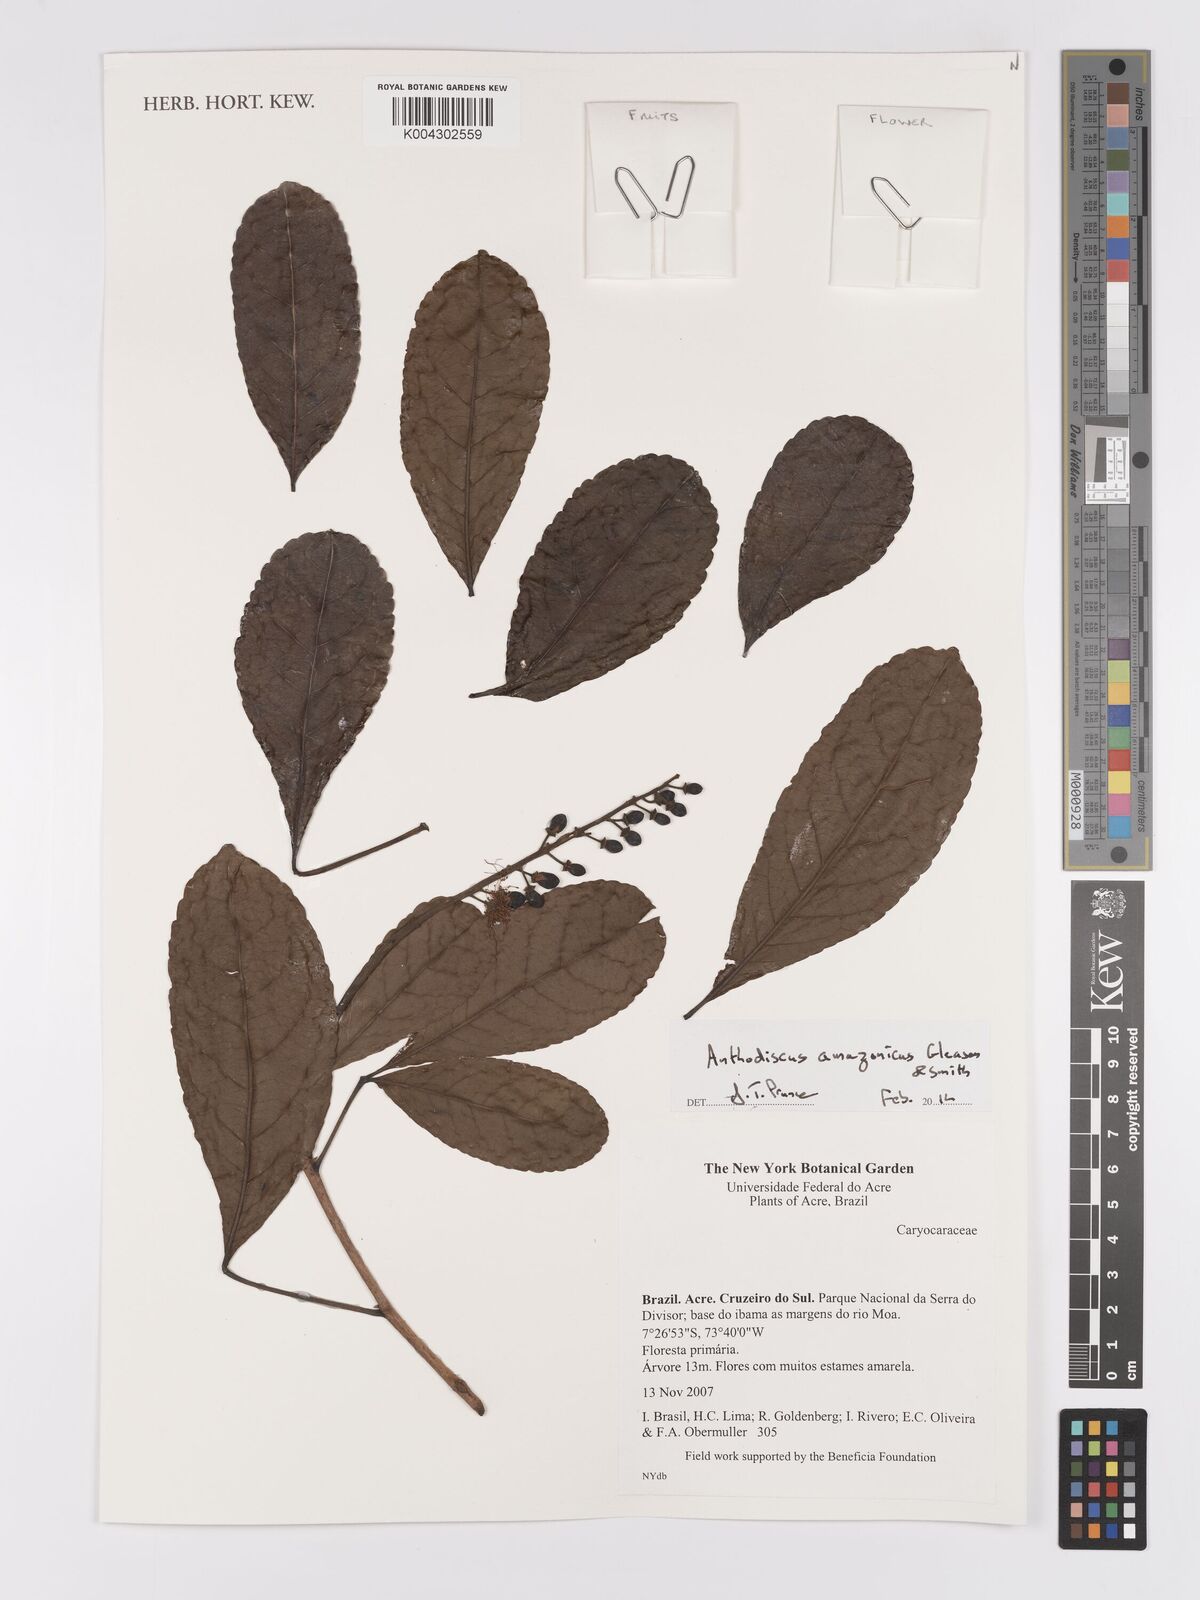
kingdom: Plantae
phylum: Tracheophyta
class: Magnoliopsida
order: Malpighiales
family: Caryocaraceae
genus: Anthodiscus
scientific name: Anthodiscus amazonicus
